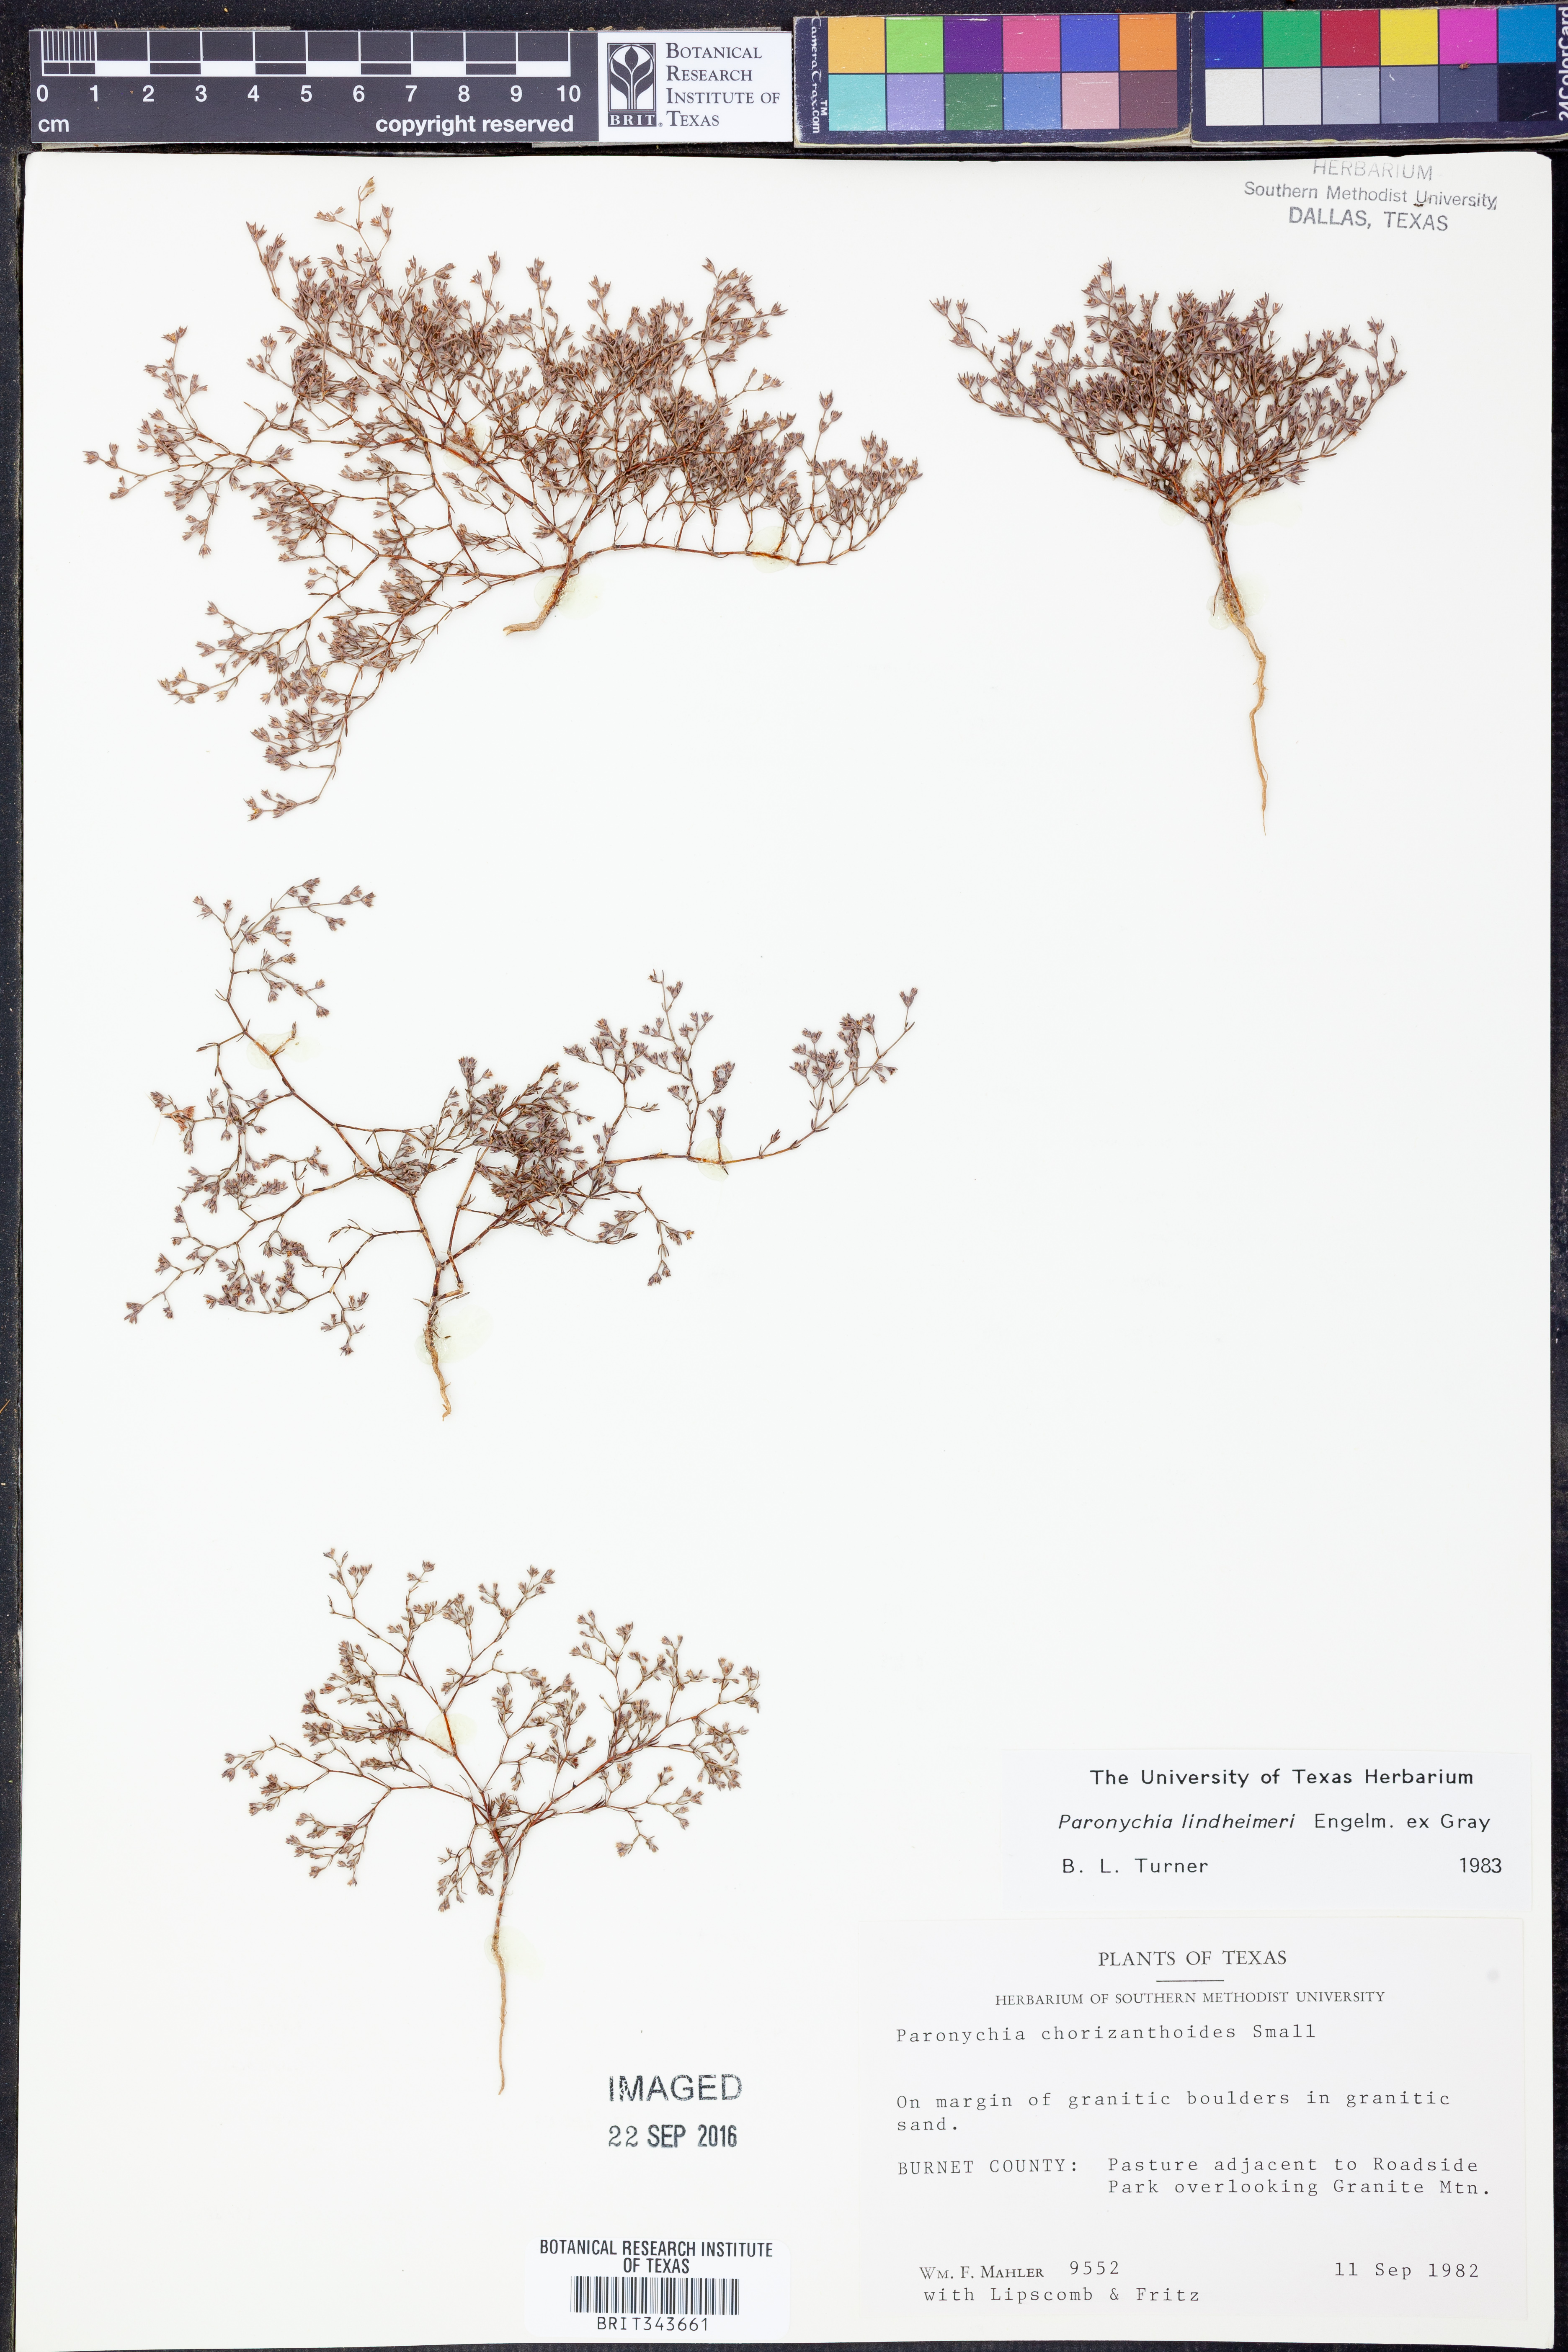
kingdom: Plantae
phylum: Tracheophyta
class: Magnoliopsida
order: Caryophyllales
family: Caryophyllaceae
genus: Paronychia
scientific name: Paronychia lindheimeri
